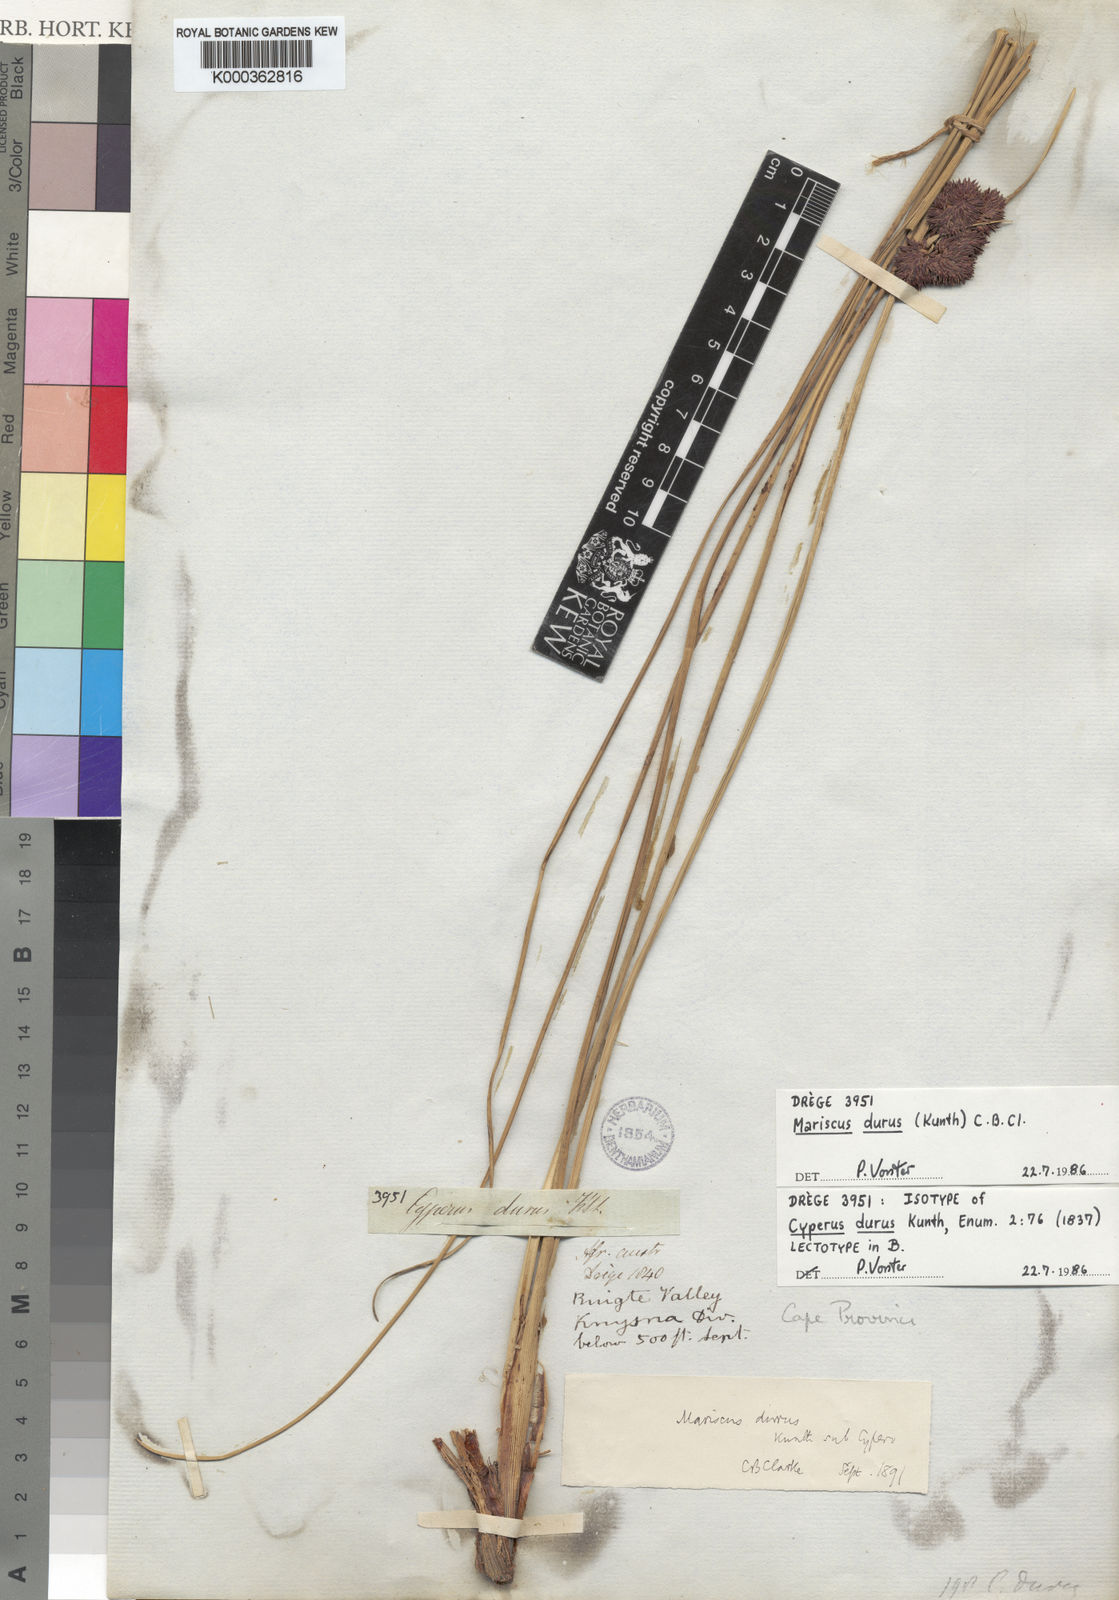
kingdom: Plantae
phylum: Tracheophyta
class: Liliopsida
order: Poales
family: Cyperaceae
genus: Cyperus
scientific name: Cyperus durus
